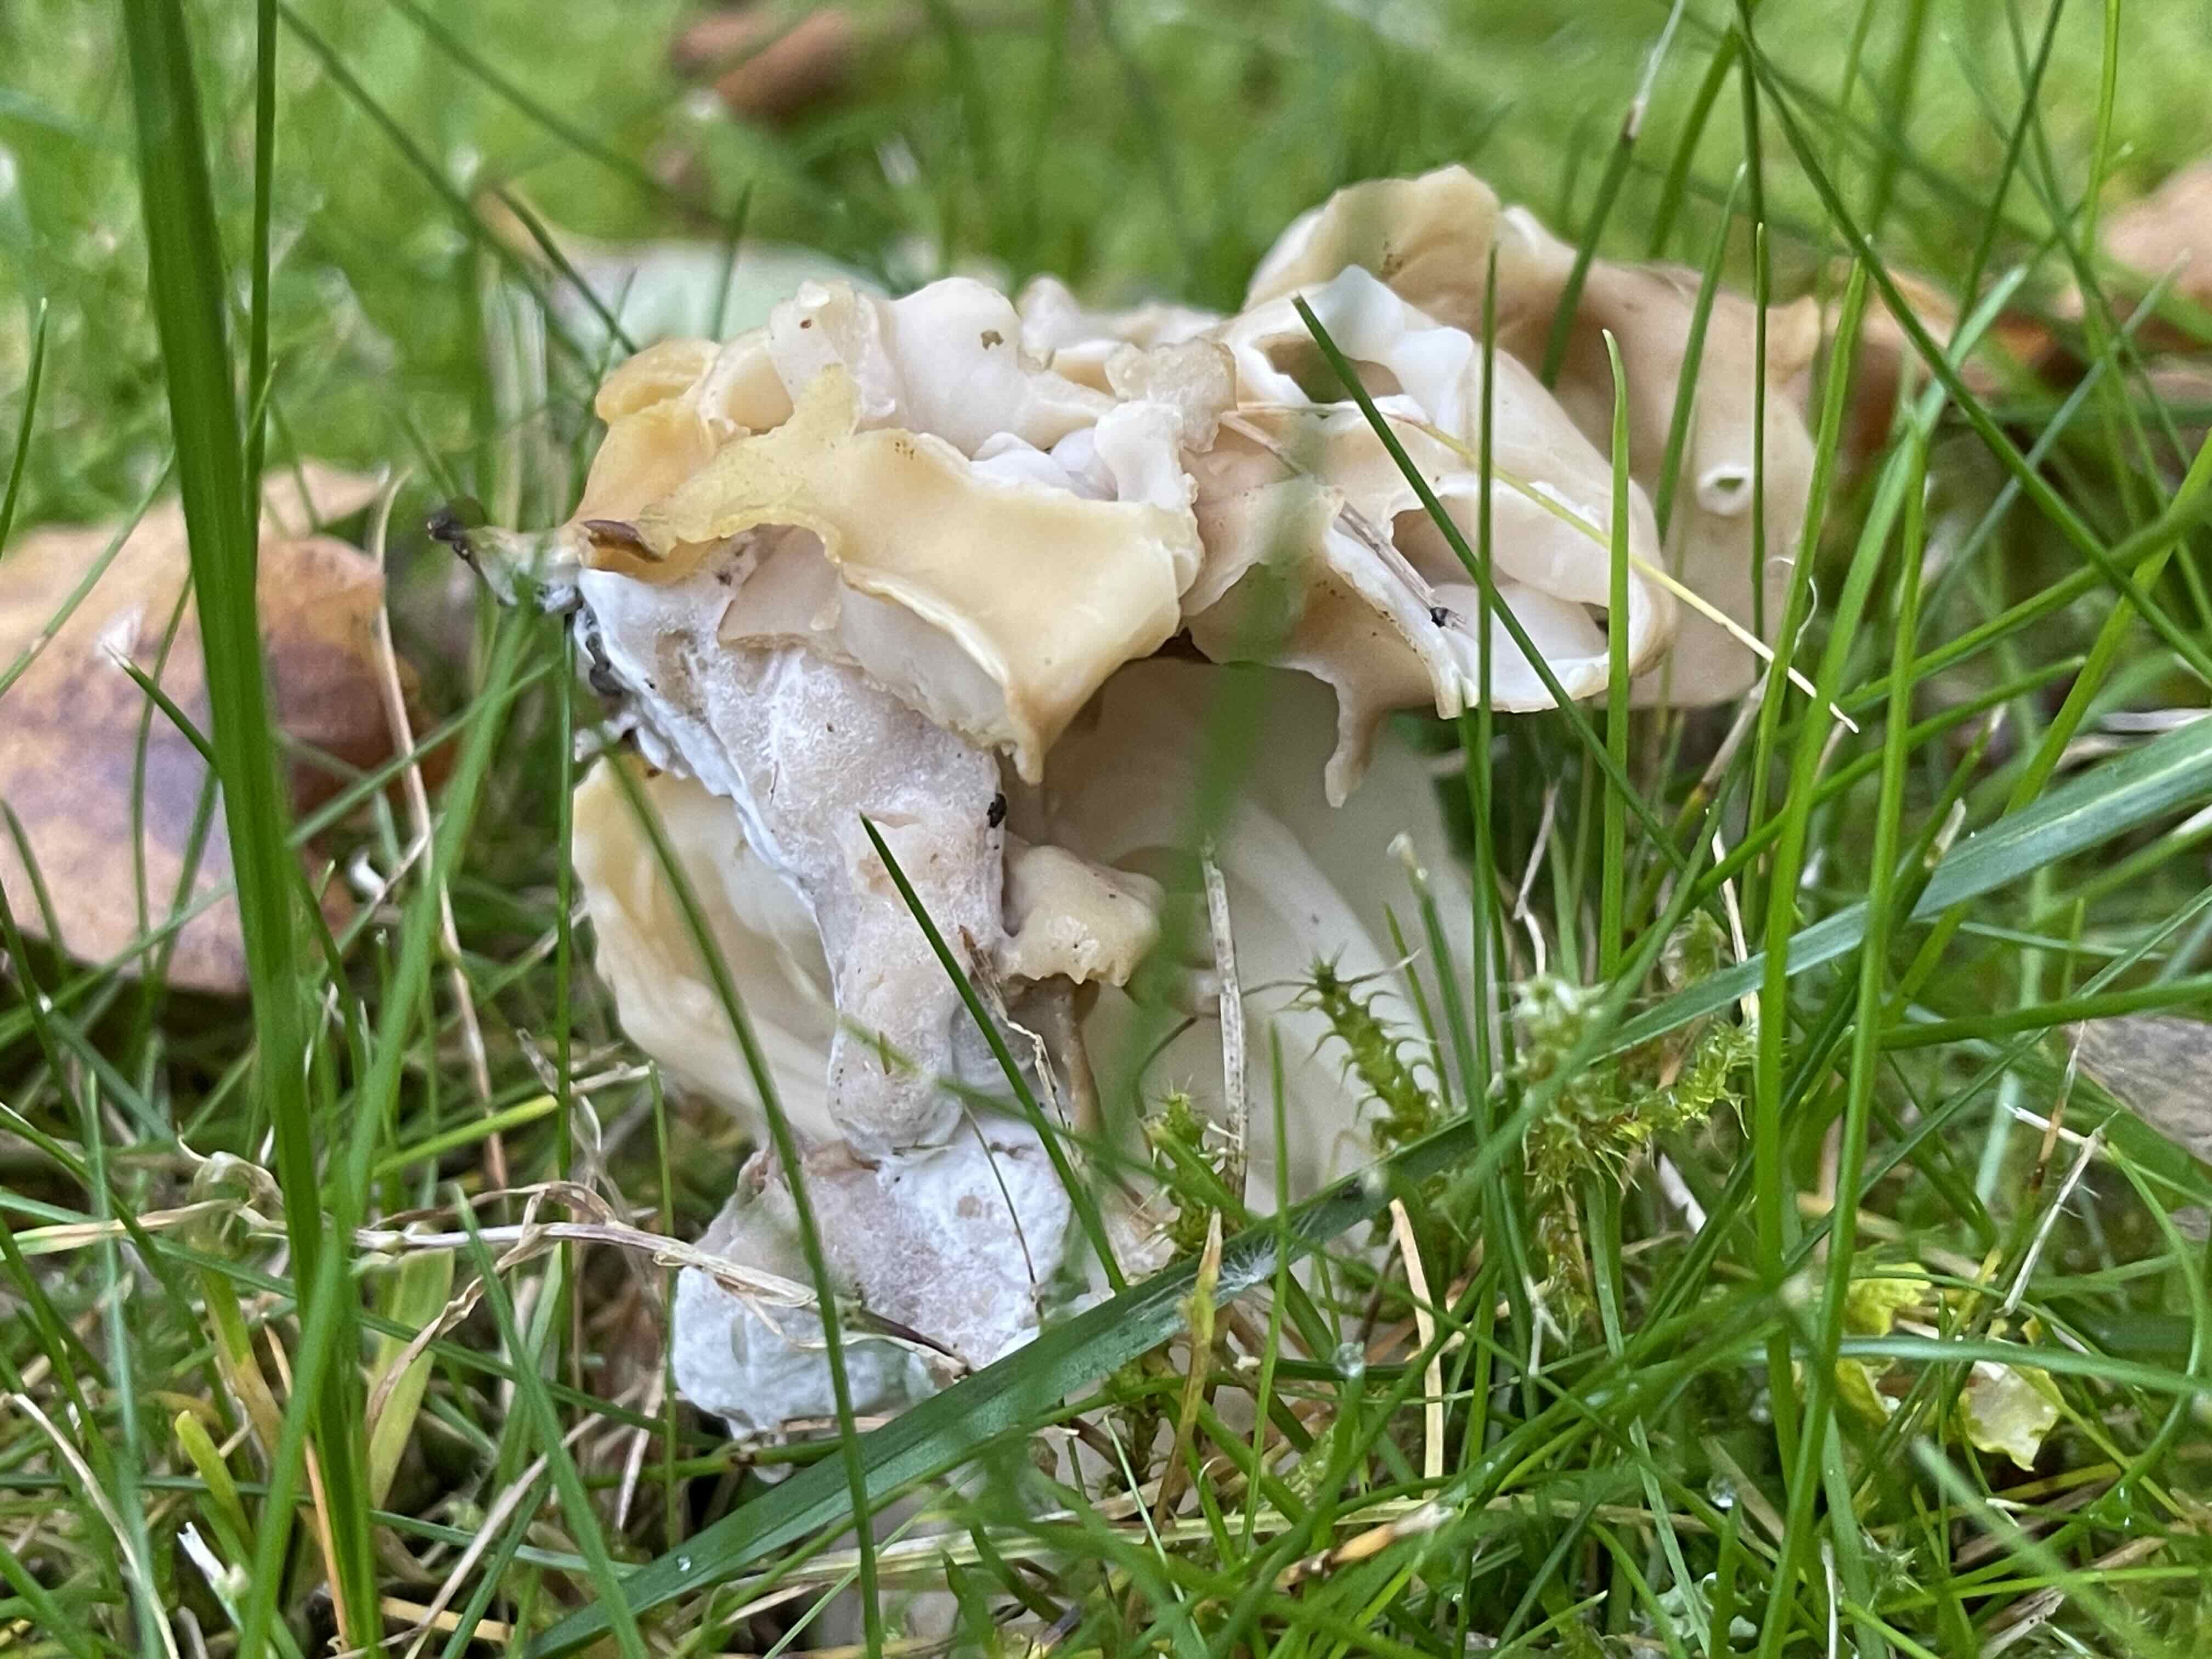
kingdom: Fungi
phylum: Ascomycota
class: Pezizomycetes
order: Pezizales
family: Helvellaceae
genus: Helvella
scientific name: Helvella crispa
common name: kruset foldhat
